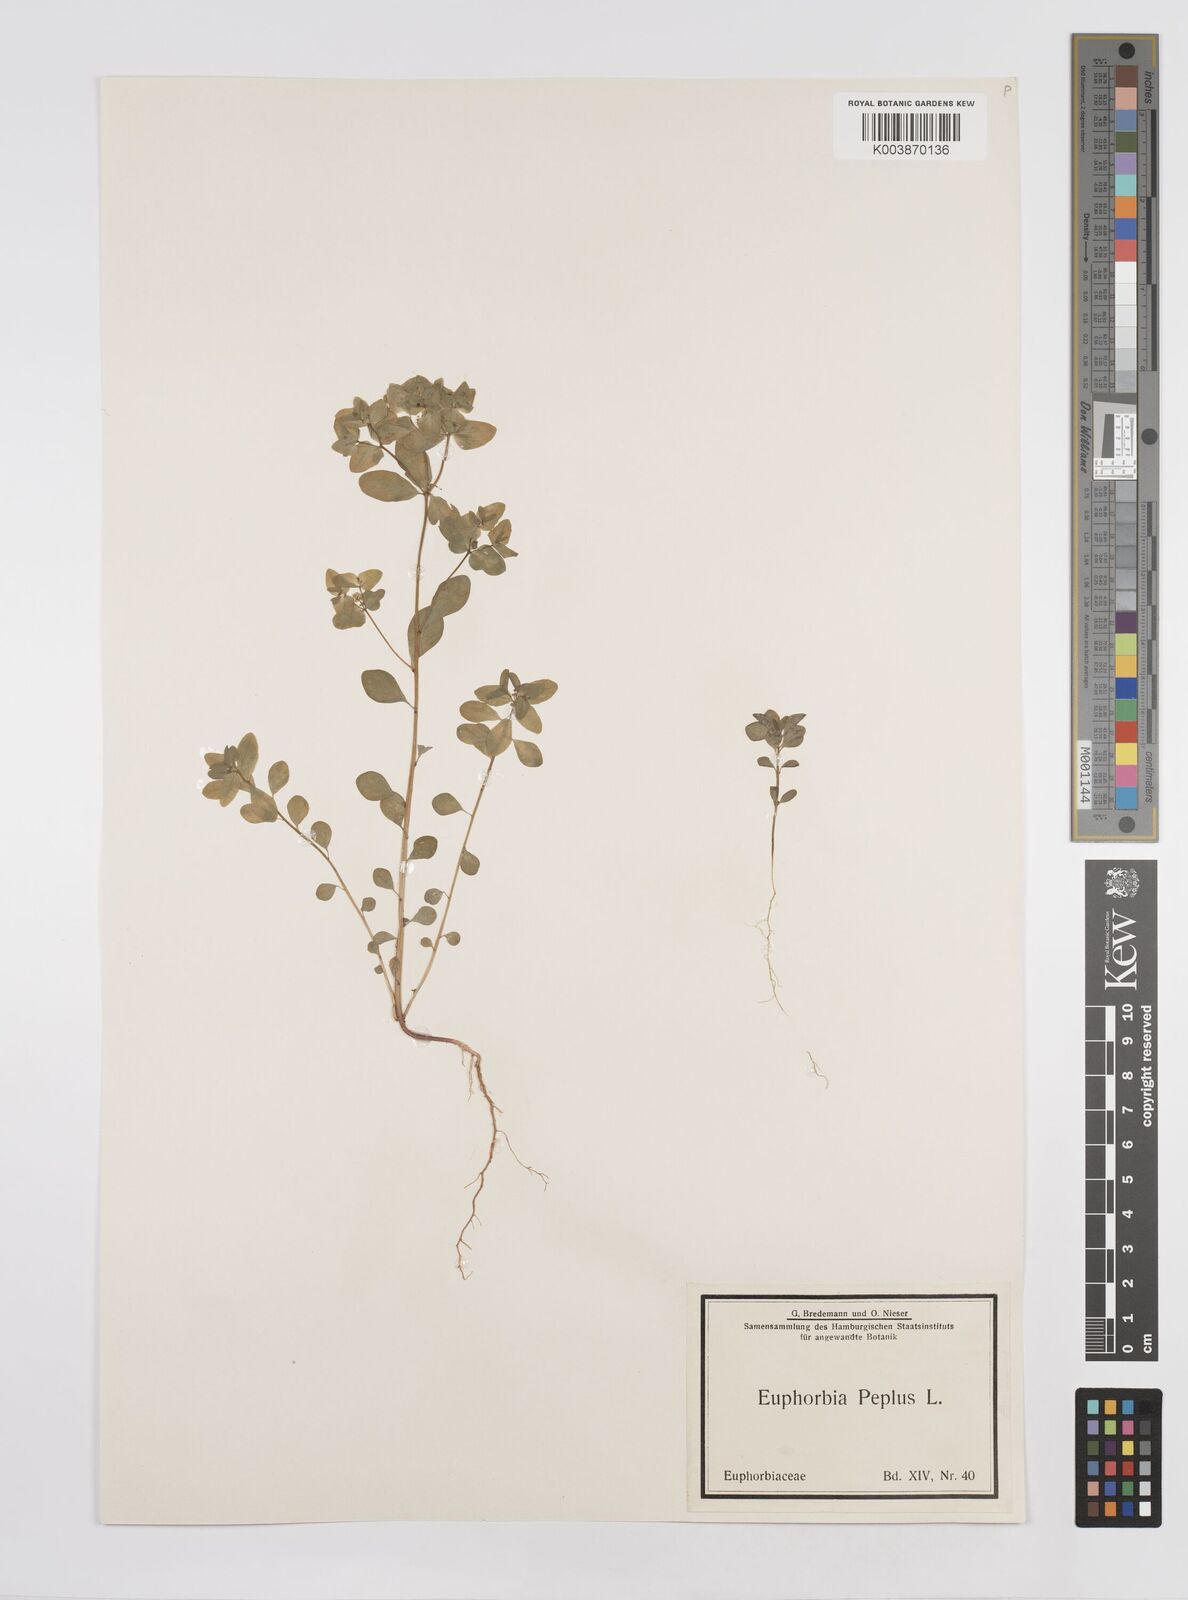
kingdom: Plantae
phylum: Tracheophyta
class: Magnoliopsida
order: Malpighiales
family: Euphorbiaceae
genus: Euphorbia
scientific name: Euphorbia peplus
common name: Petty spurge
